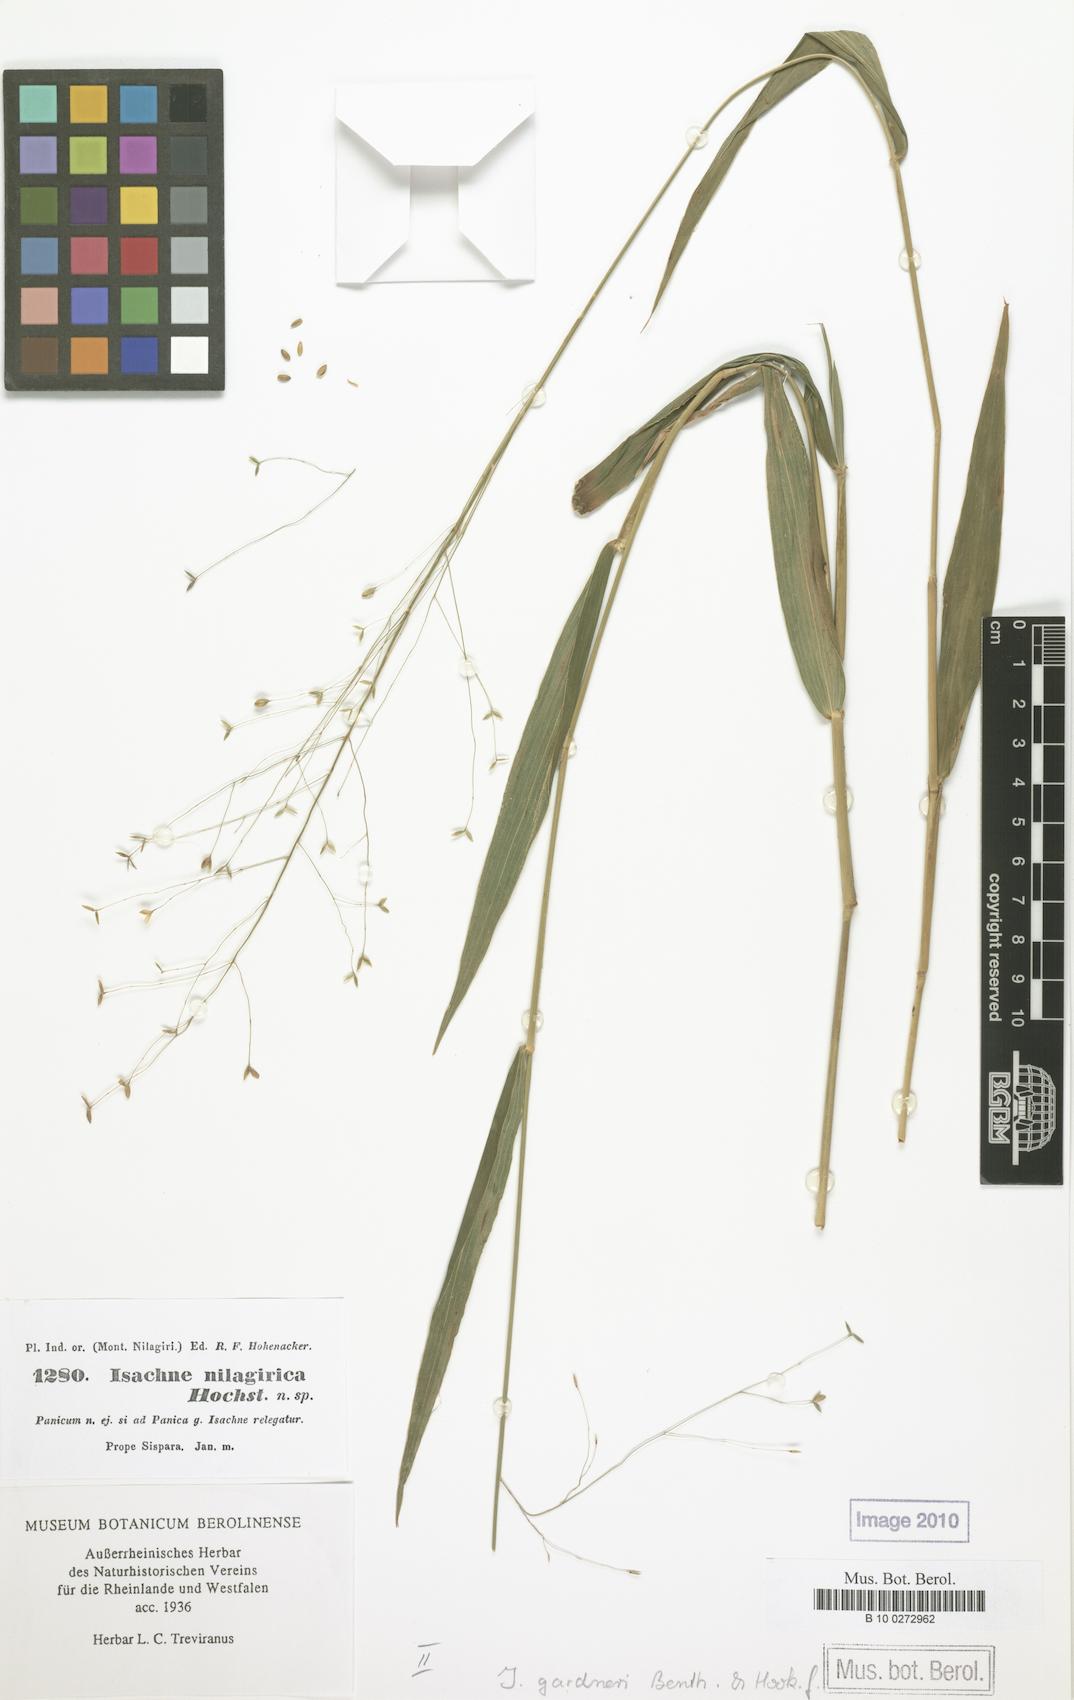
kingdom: Plantae
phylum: Tracheophyta
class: Liliopsida
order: Poales
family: Poaceae
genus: Isachne
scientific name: Isachne walkeri
